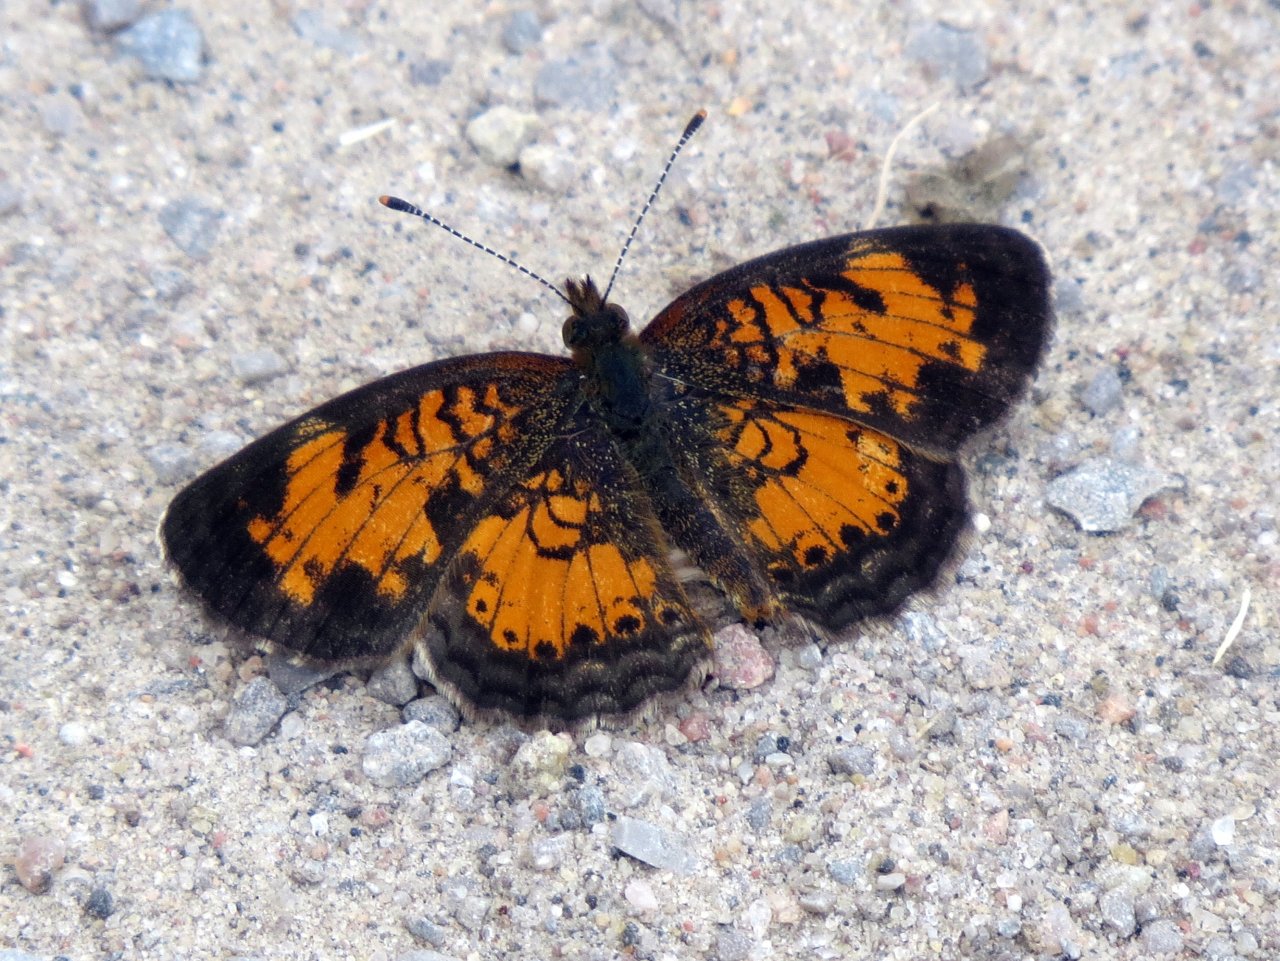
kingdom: Animalia
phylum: Arthropoda
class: Insecta
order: Lepidoptera
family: Nymphalidae
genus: Phyciodes
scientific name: Phyciodes tharos
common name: Pearl Crescent
